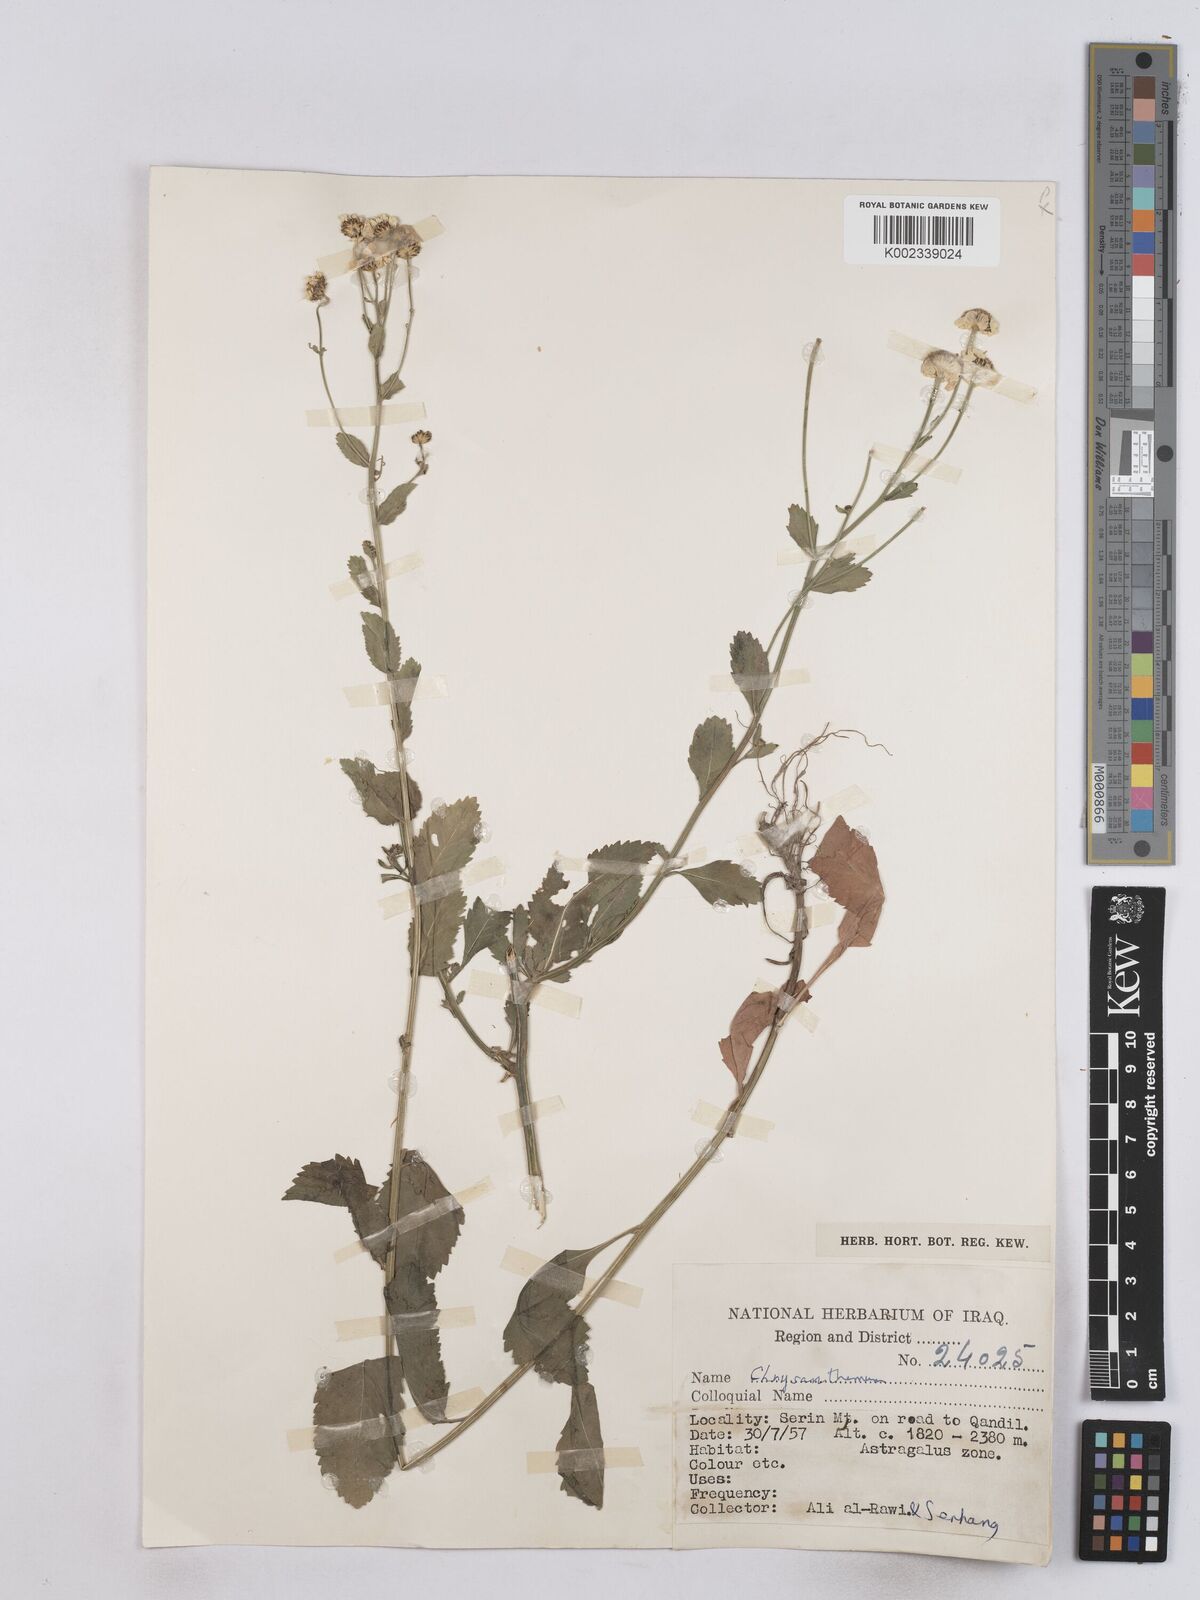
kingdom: Plantae
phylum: Tracheophyta
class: Magnoliopsida
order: Asterales
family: Asteraceae
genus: Tanacetum
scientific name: Tanacetum balsamitoides
